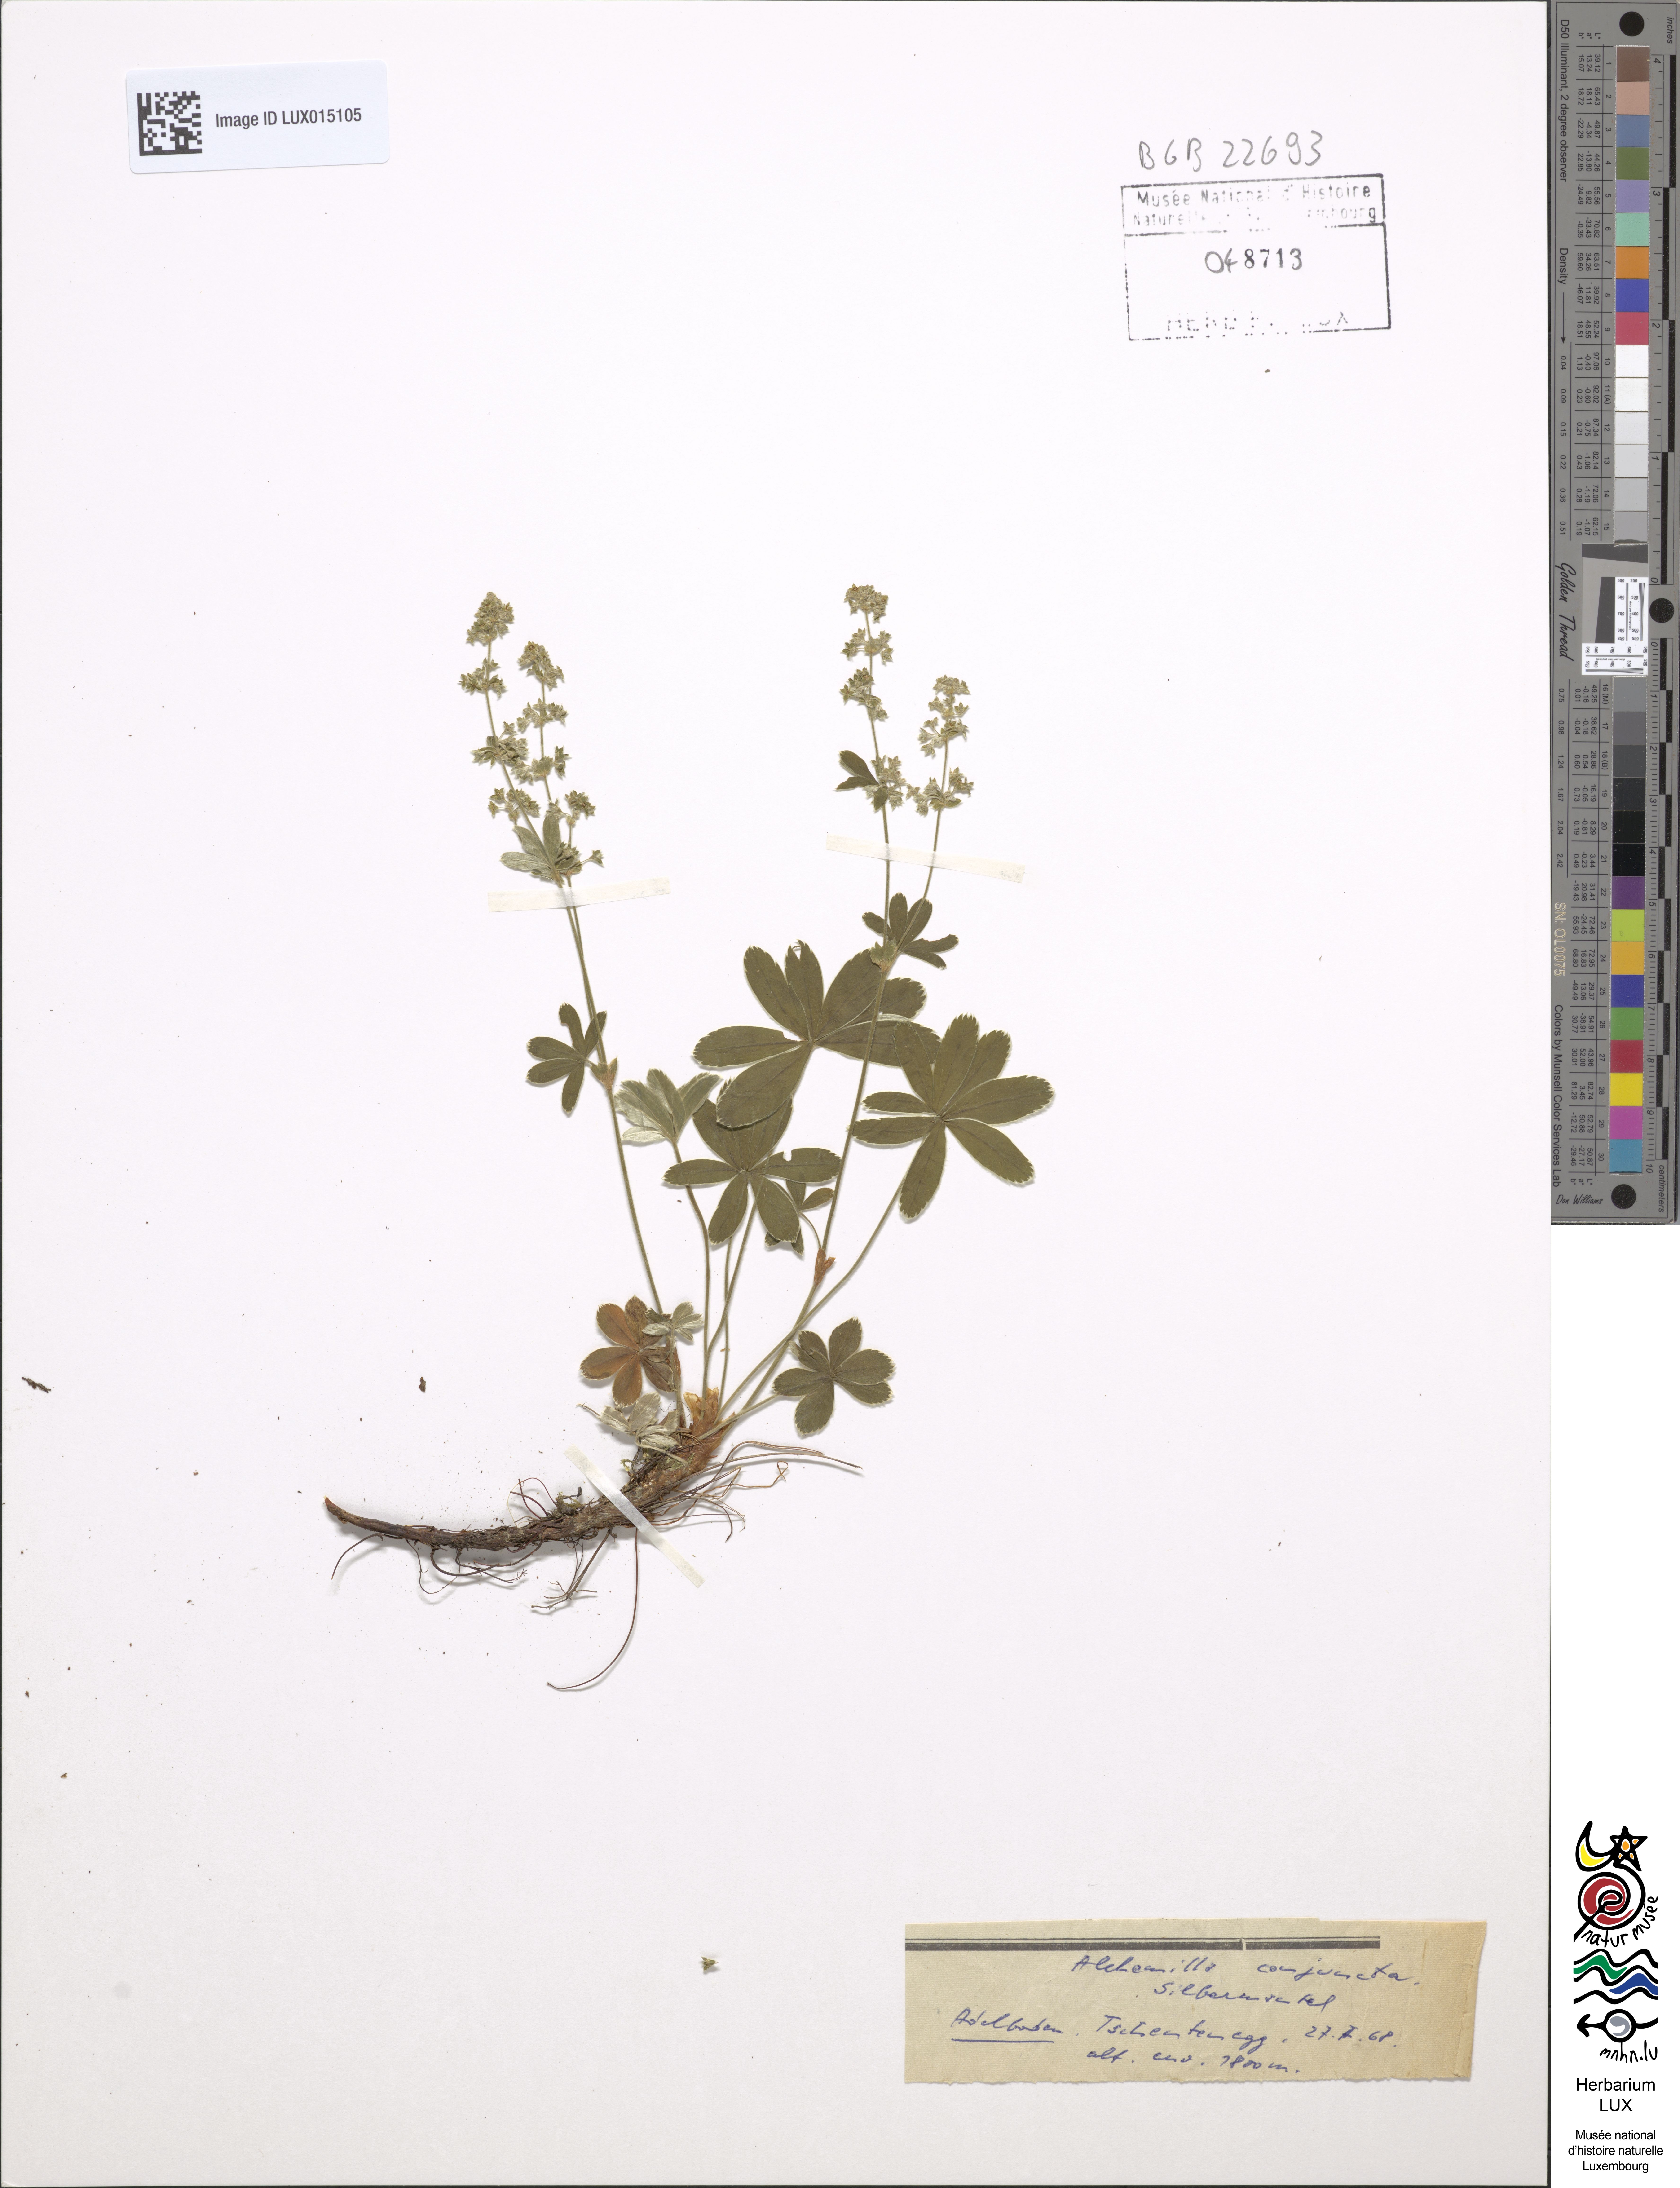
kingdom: Plantae
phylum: Tracheophyta
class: Magnoliopsida
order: Rosales
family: Rosaceae
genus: Alchemilla
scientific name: Alchemilla conjuncta
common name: Silver lady's-mantle
